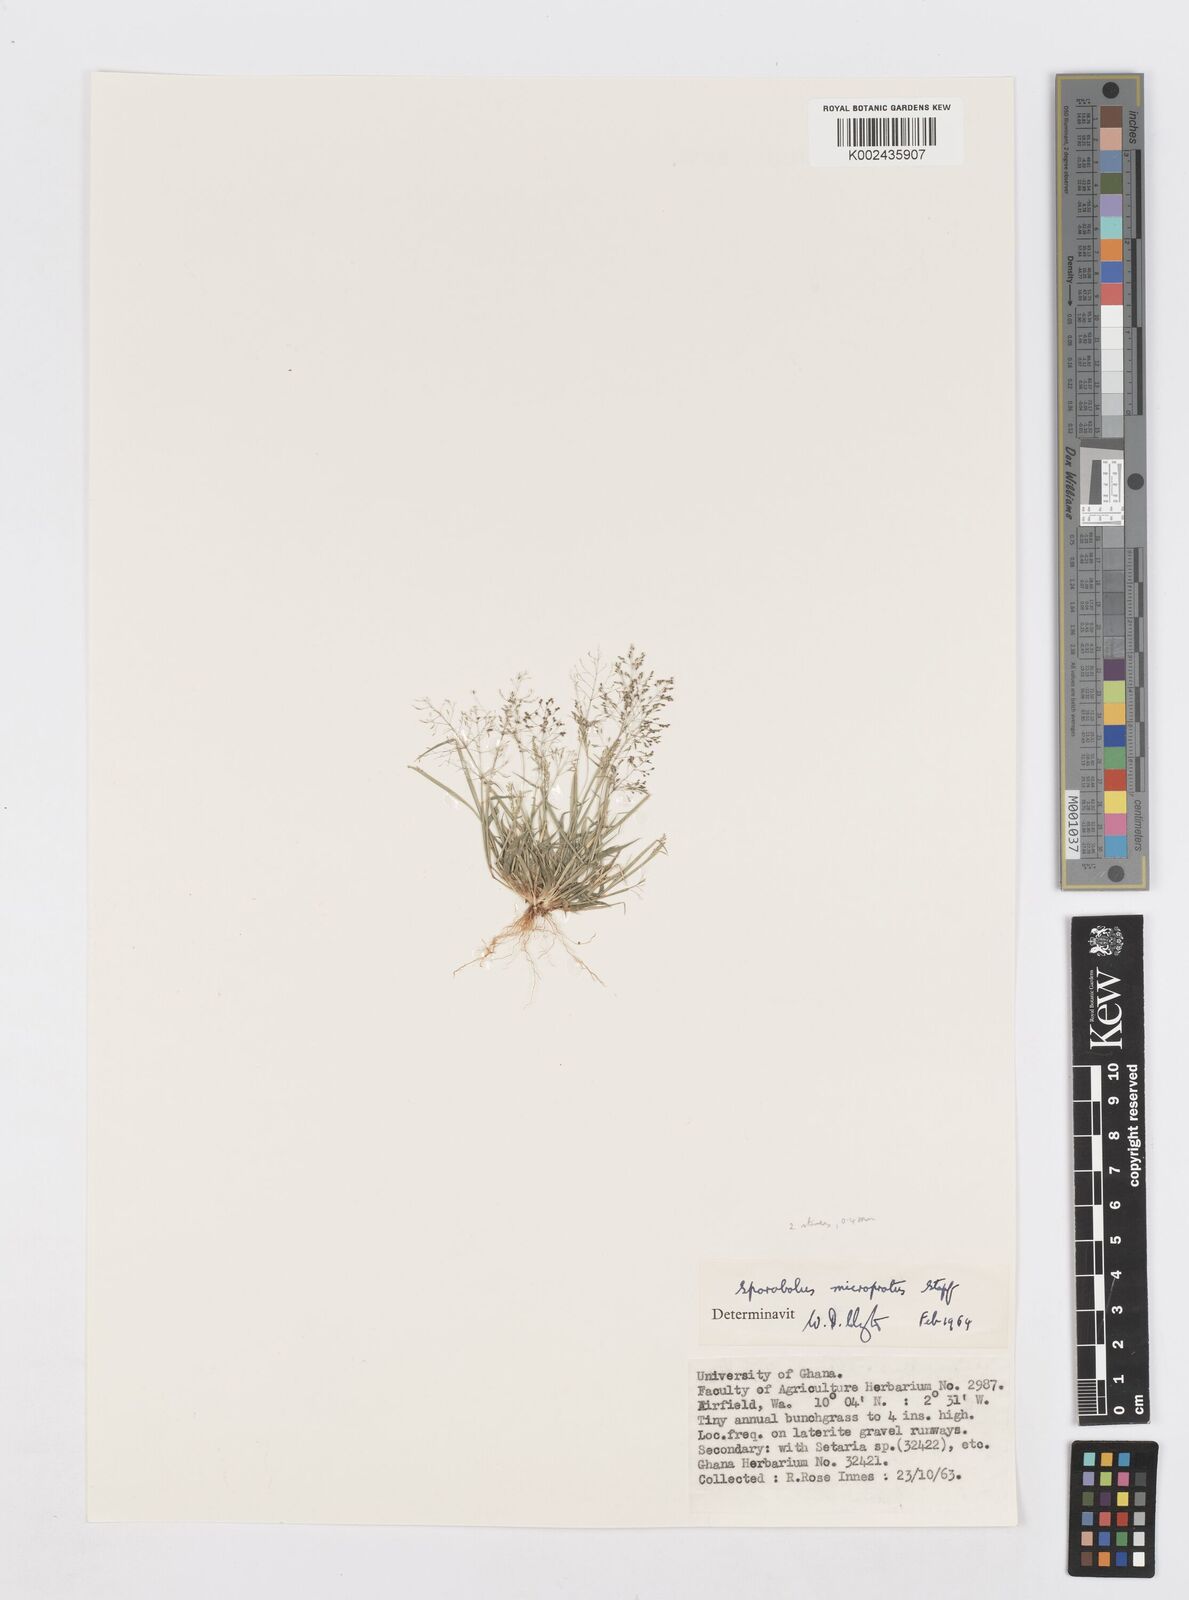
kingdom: Plantae
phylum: Tracheophyta
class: Liliopsida
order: Poales
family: Poaceae
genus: Sporobolus
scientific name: Sporobolus microprotus
